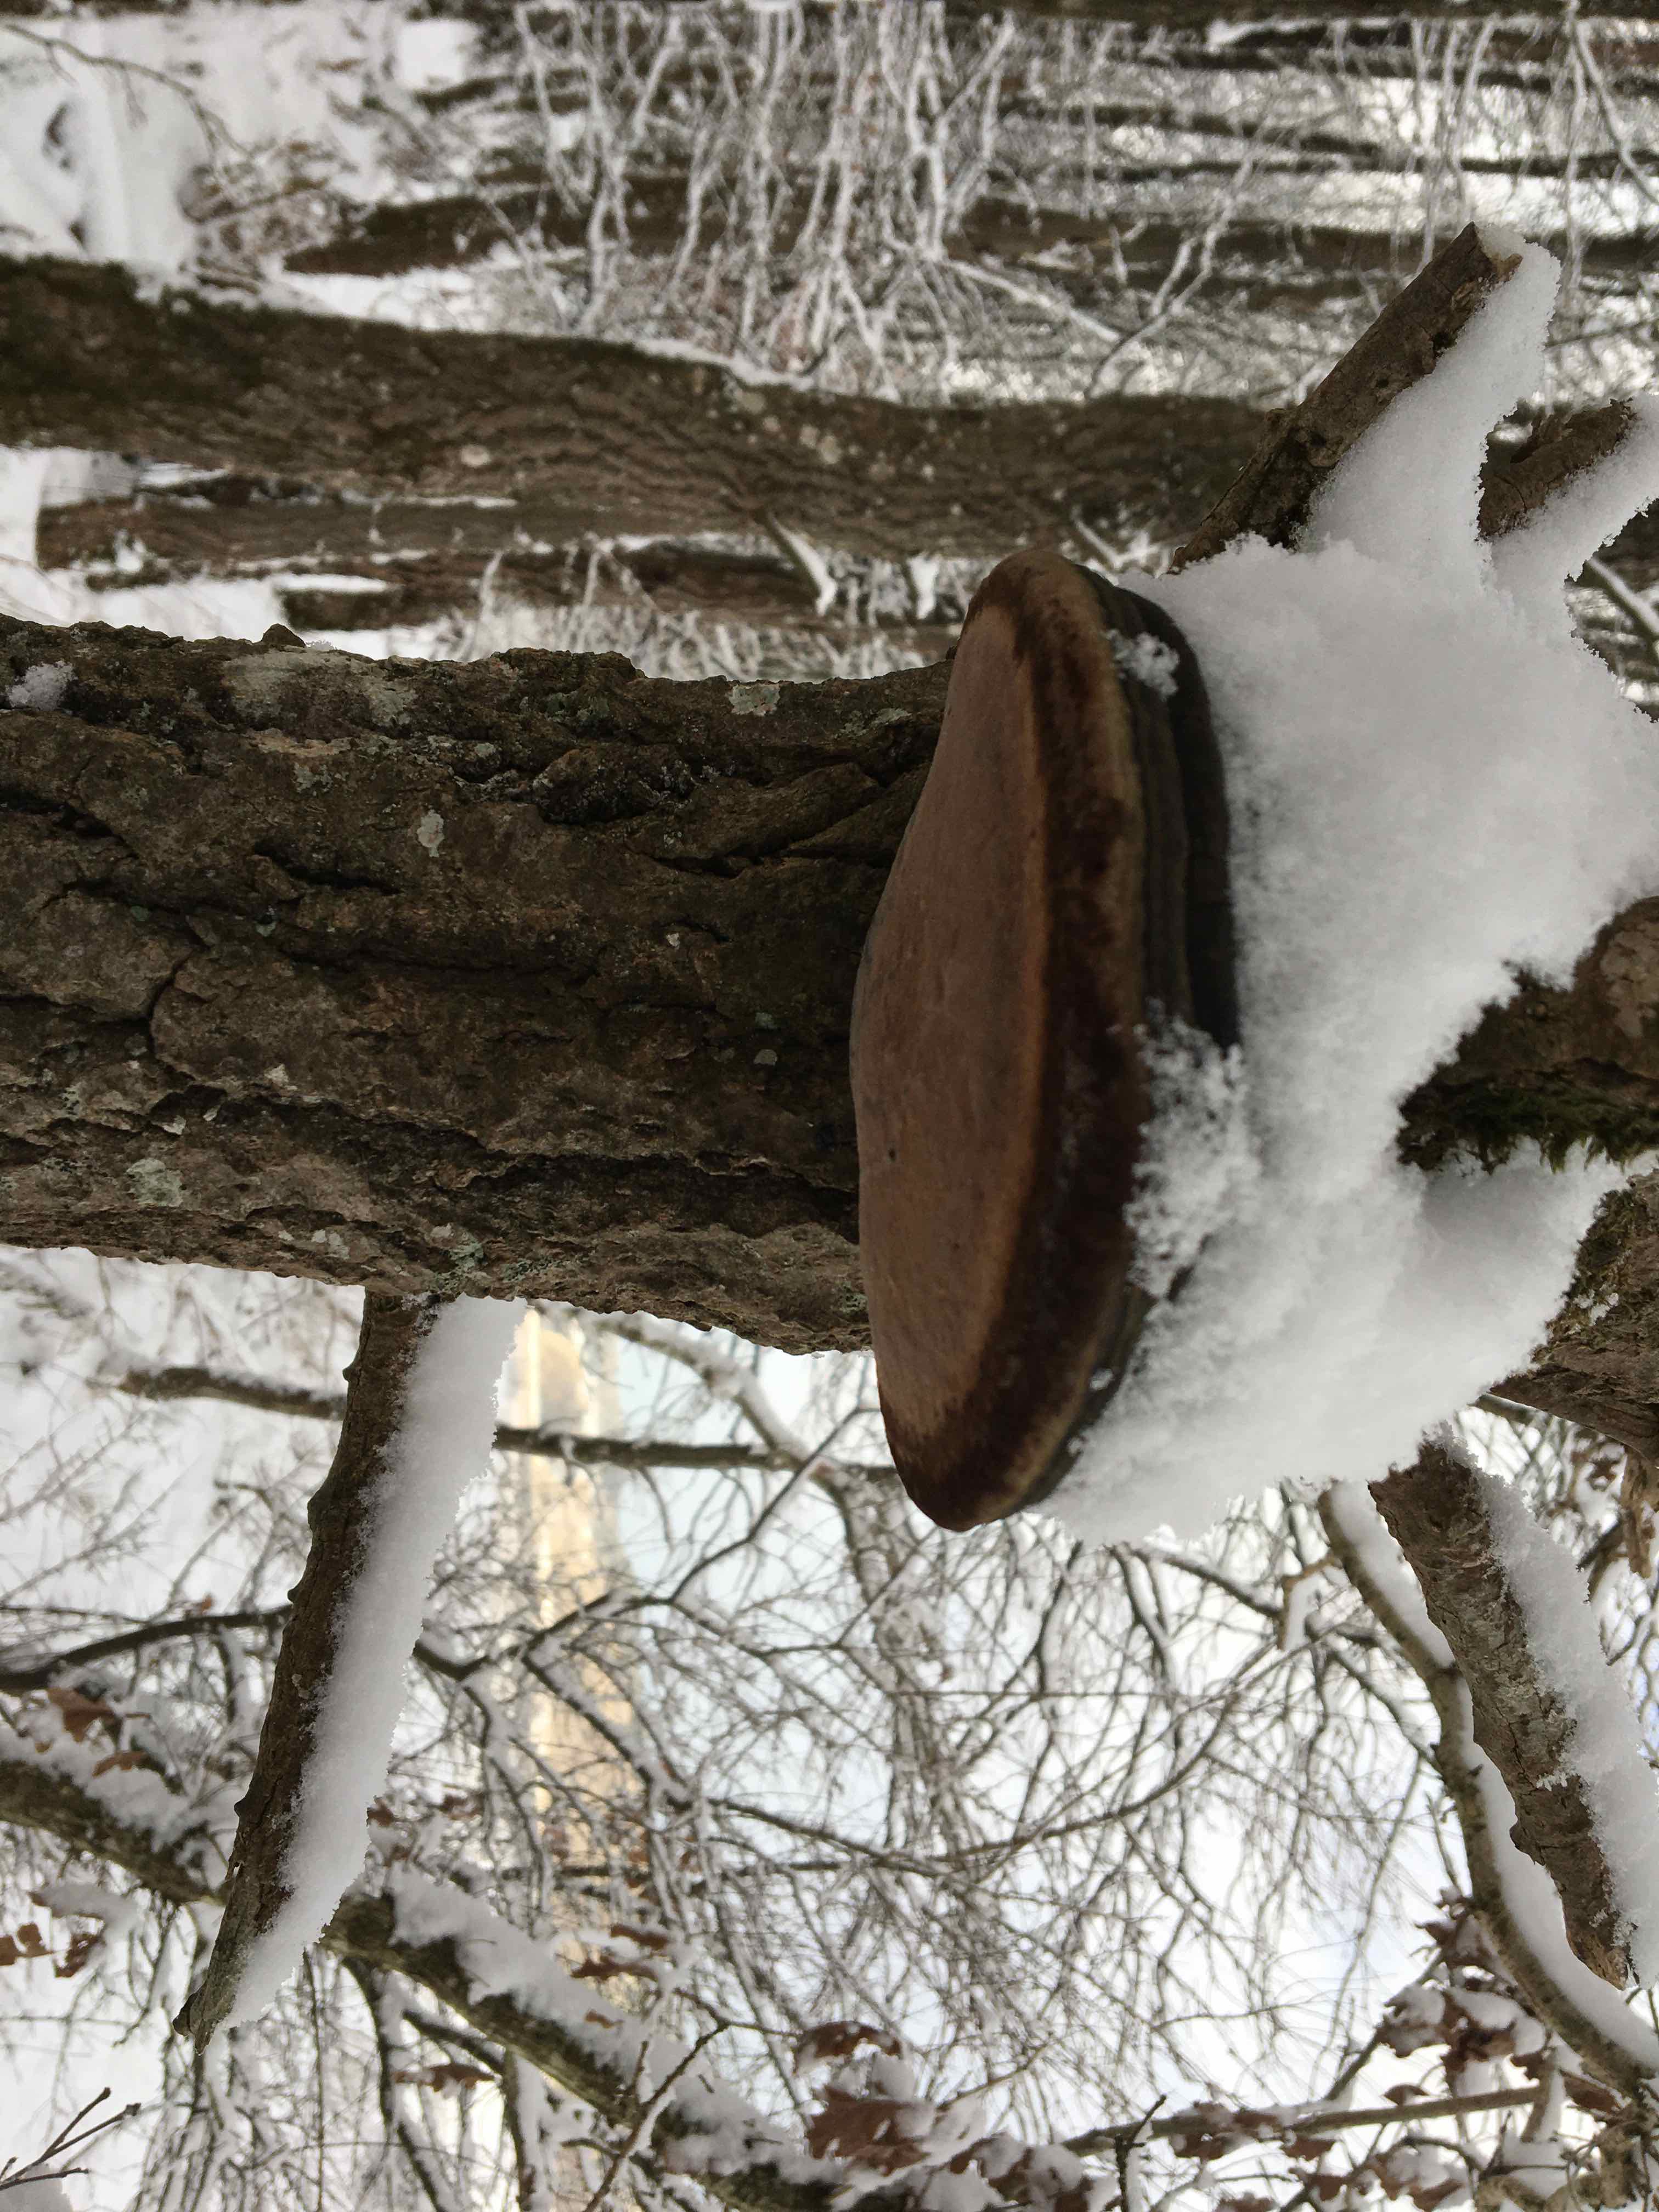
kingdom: Fungi
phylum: Basidiomycota
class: Agaricomycetes
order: Hymenochaetales
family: Hymenochaetaceae
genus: Phellinus
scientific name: Phellinus populicola
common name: poppel-ildporesvamp
